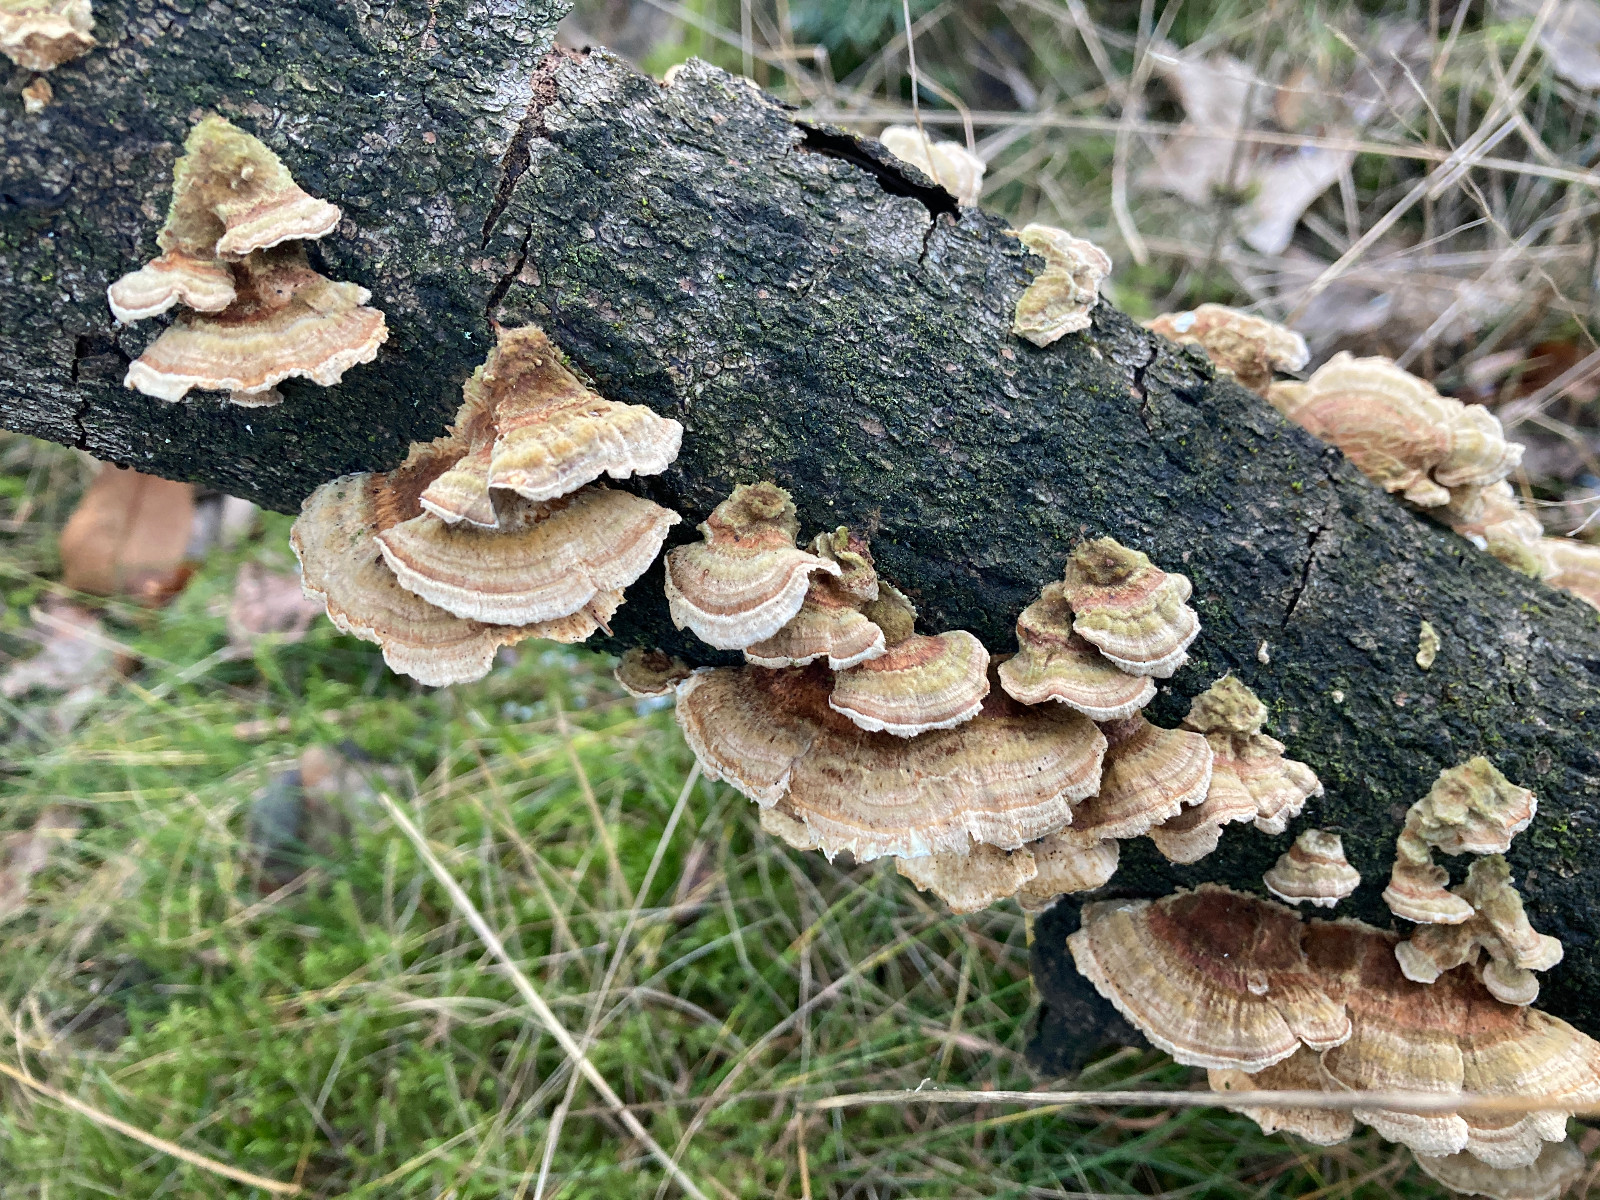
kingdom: Fungi
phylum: Basidiomycota
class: Agaricomycetes
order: Polyporales
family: Polyporaceae
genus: Trametes
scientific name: Trametes
